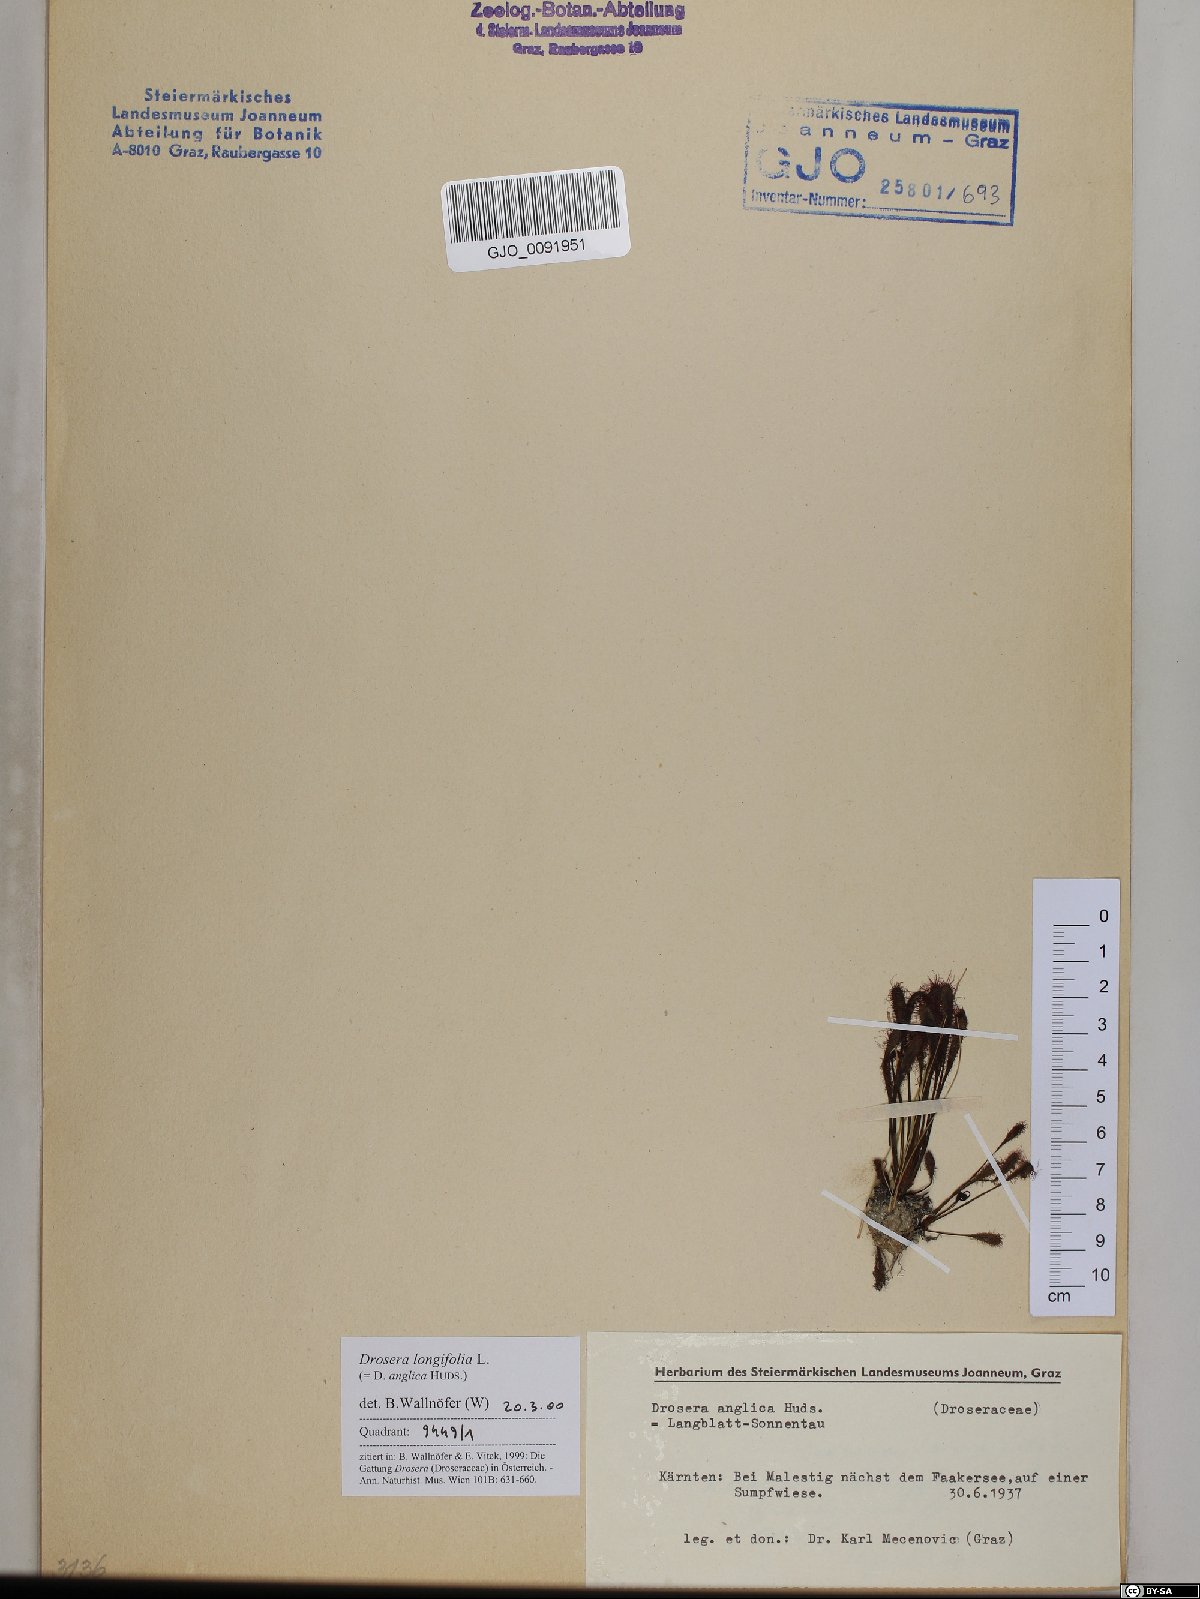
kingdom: Plantae
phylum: Tracheophyta
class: Magnoliopsida
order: Caryophyllales
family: Droseraceae
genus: Drosera
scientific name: Drosera anglica
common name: Great sundew
